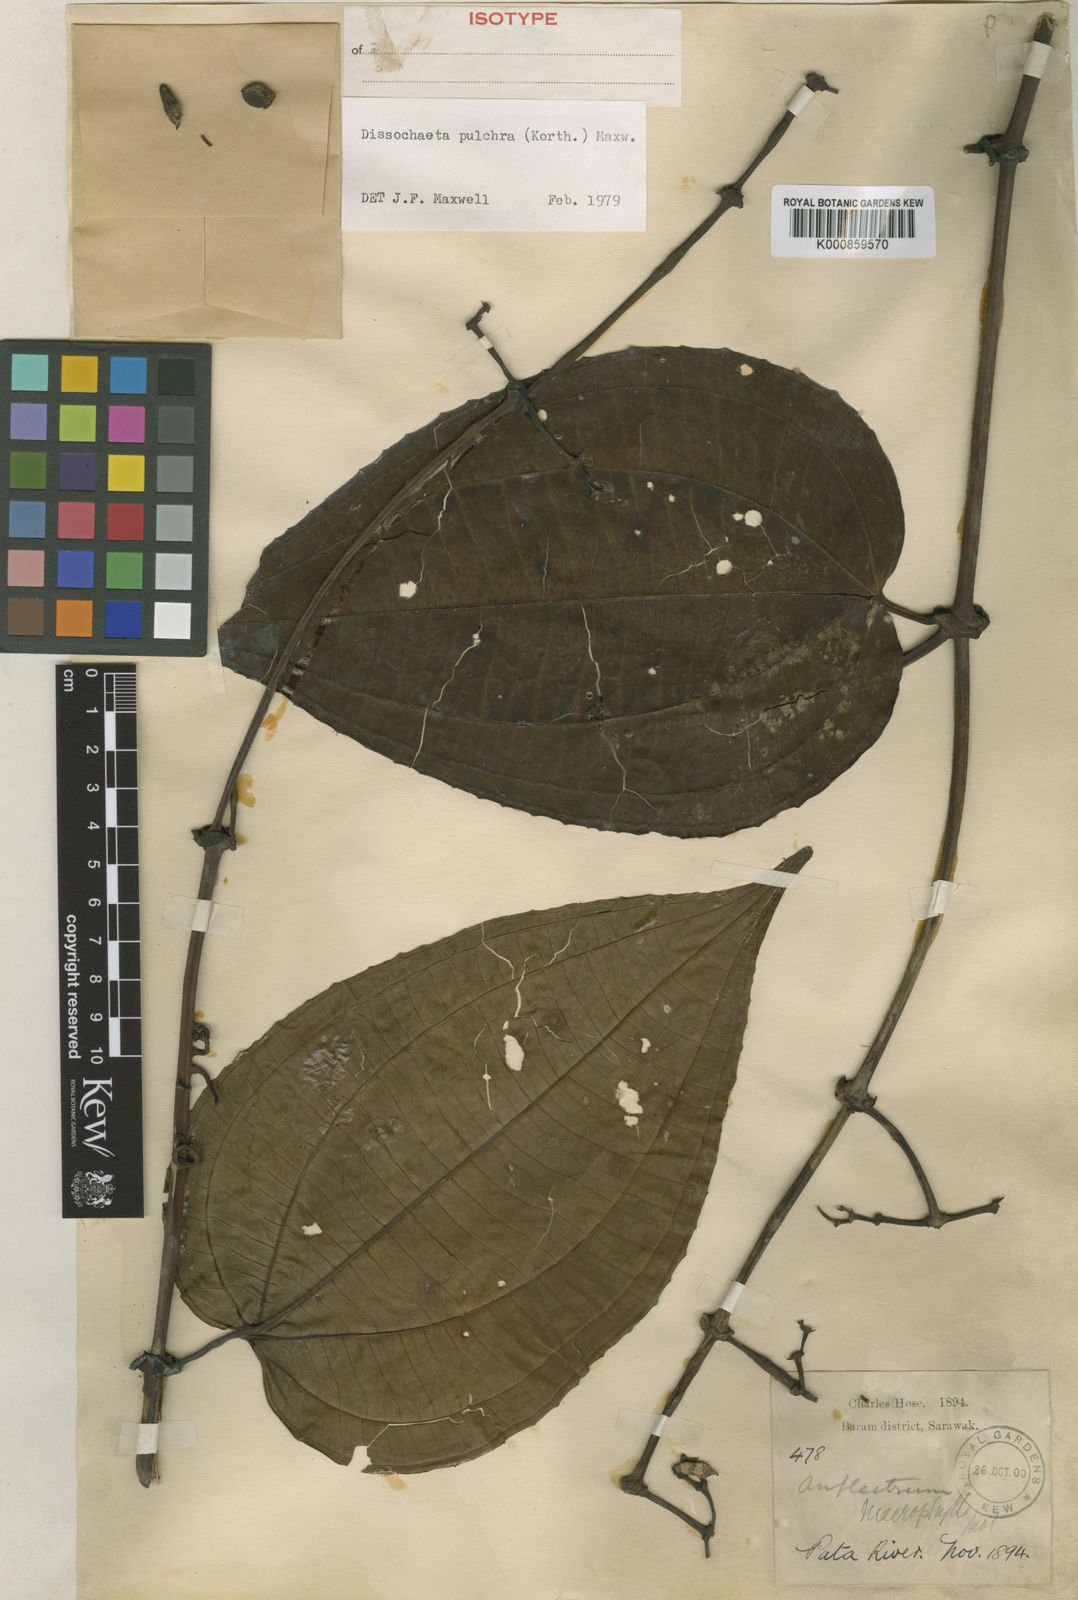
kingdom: Plantae
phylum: Tracheophyta
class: Magnoliopsida
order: Myrtales
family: Melastomataceae
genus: Dalenia
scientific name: Dalenia pulchra
